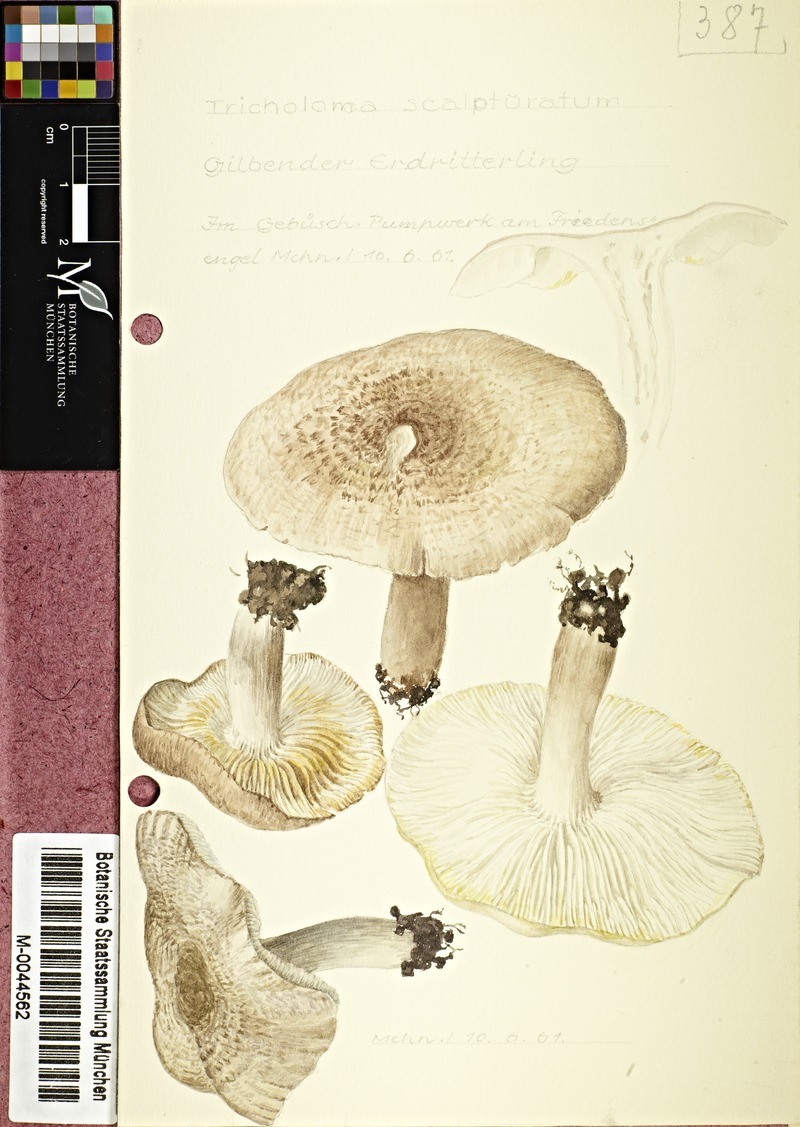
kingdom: Fungi
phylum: Basidiomycota
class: Agaricomycetes
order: Agaricales
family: Tricholomataceae
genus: Tricholoma
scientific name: Tricholoma scalpturatum
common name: Yellowing knight
